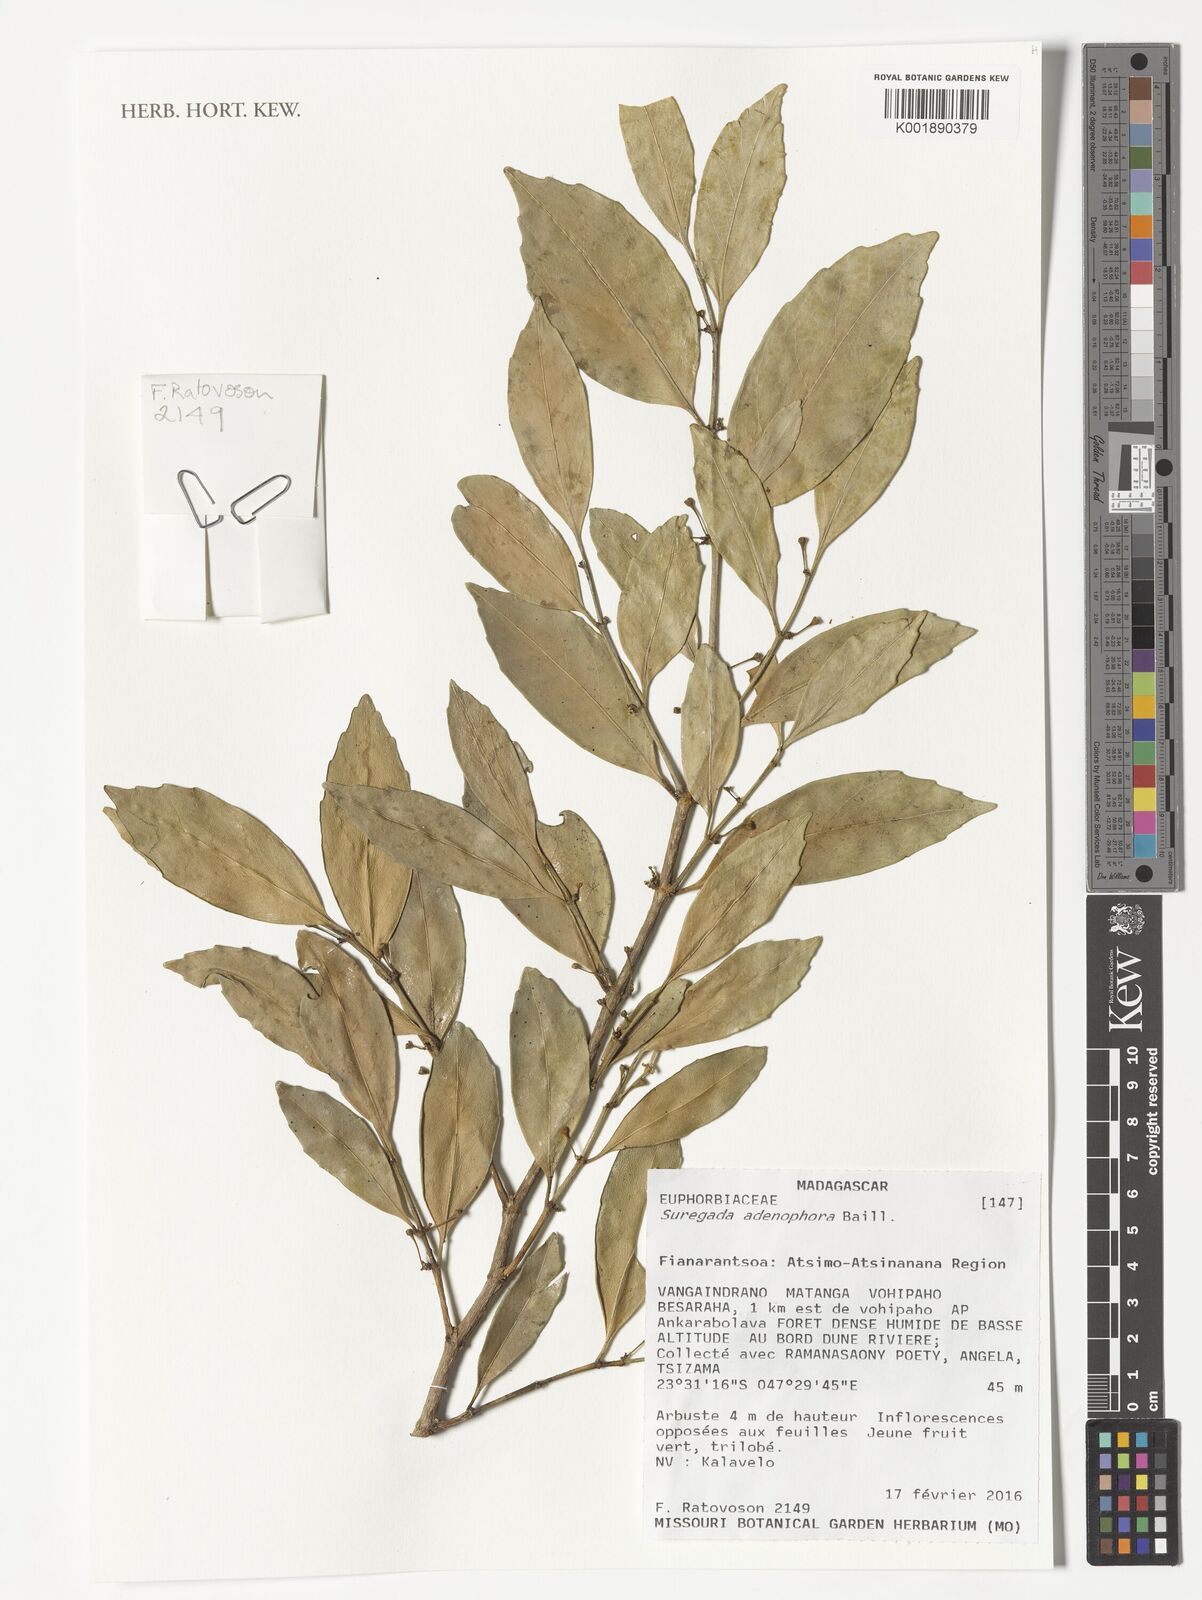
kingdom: Plantae
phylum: Tracheophyta
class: Magnoliopsida
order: Malpighiales
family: Euphorbiaceae
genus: Suregada
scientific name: Suregada adenophora
